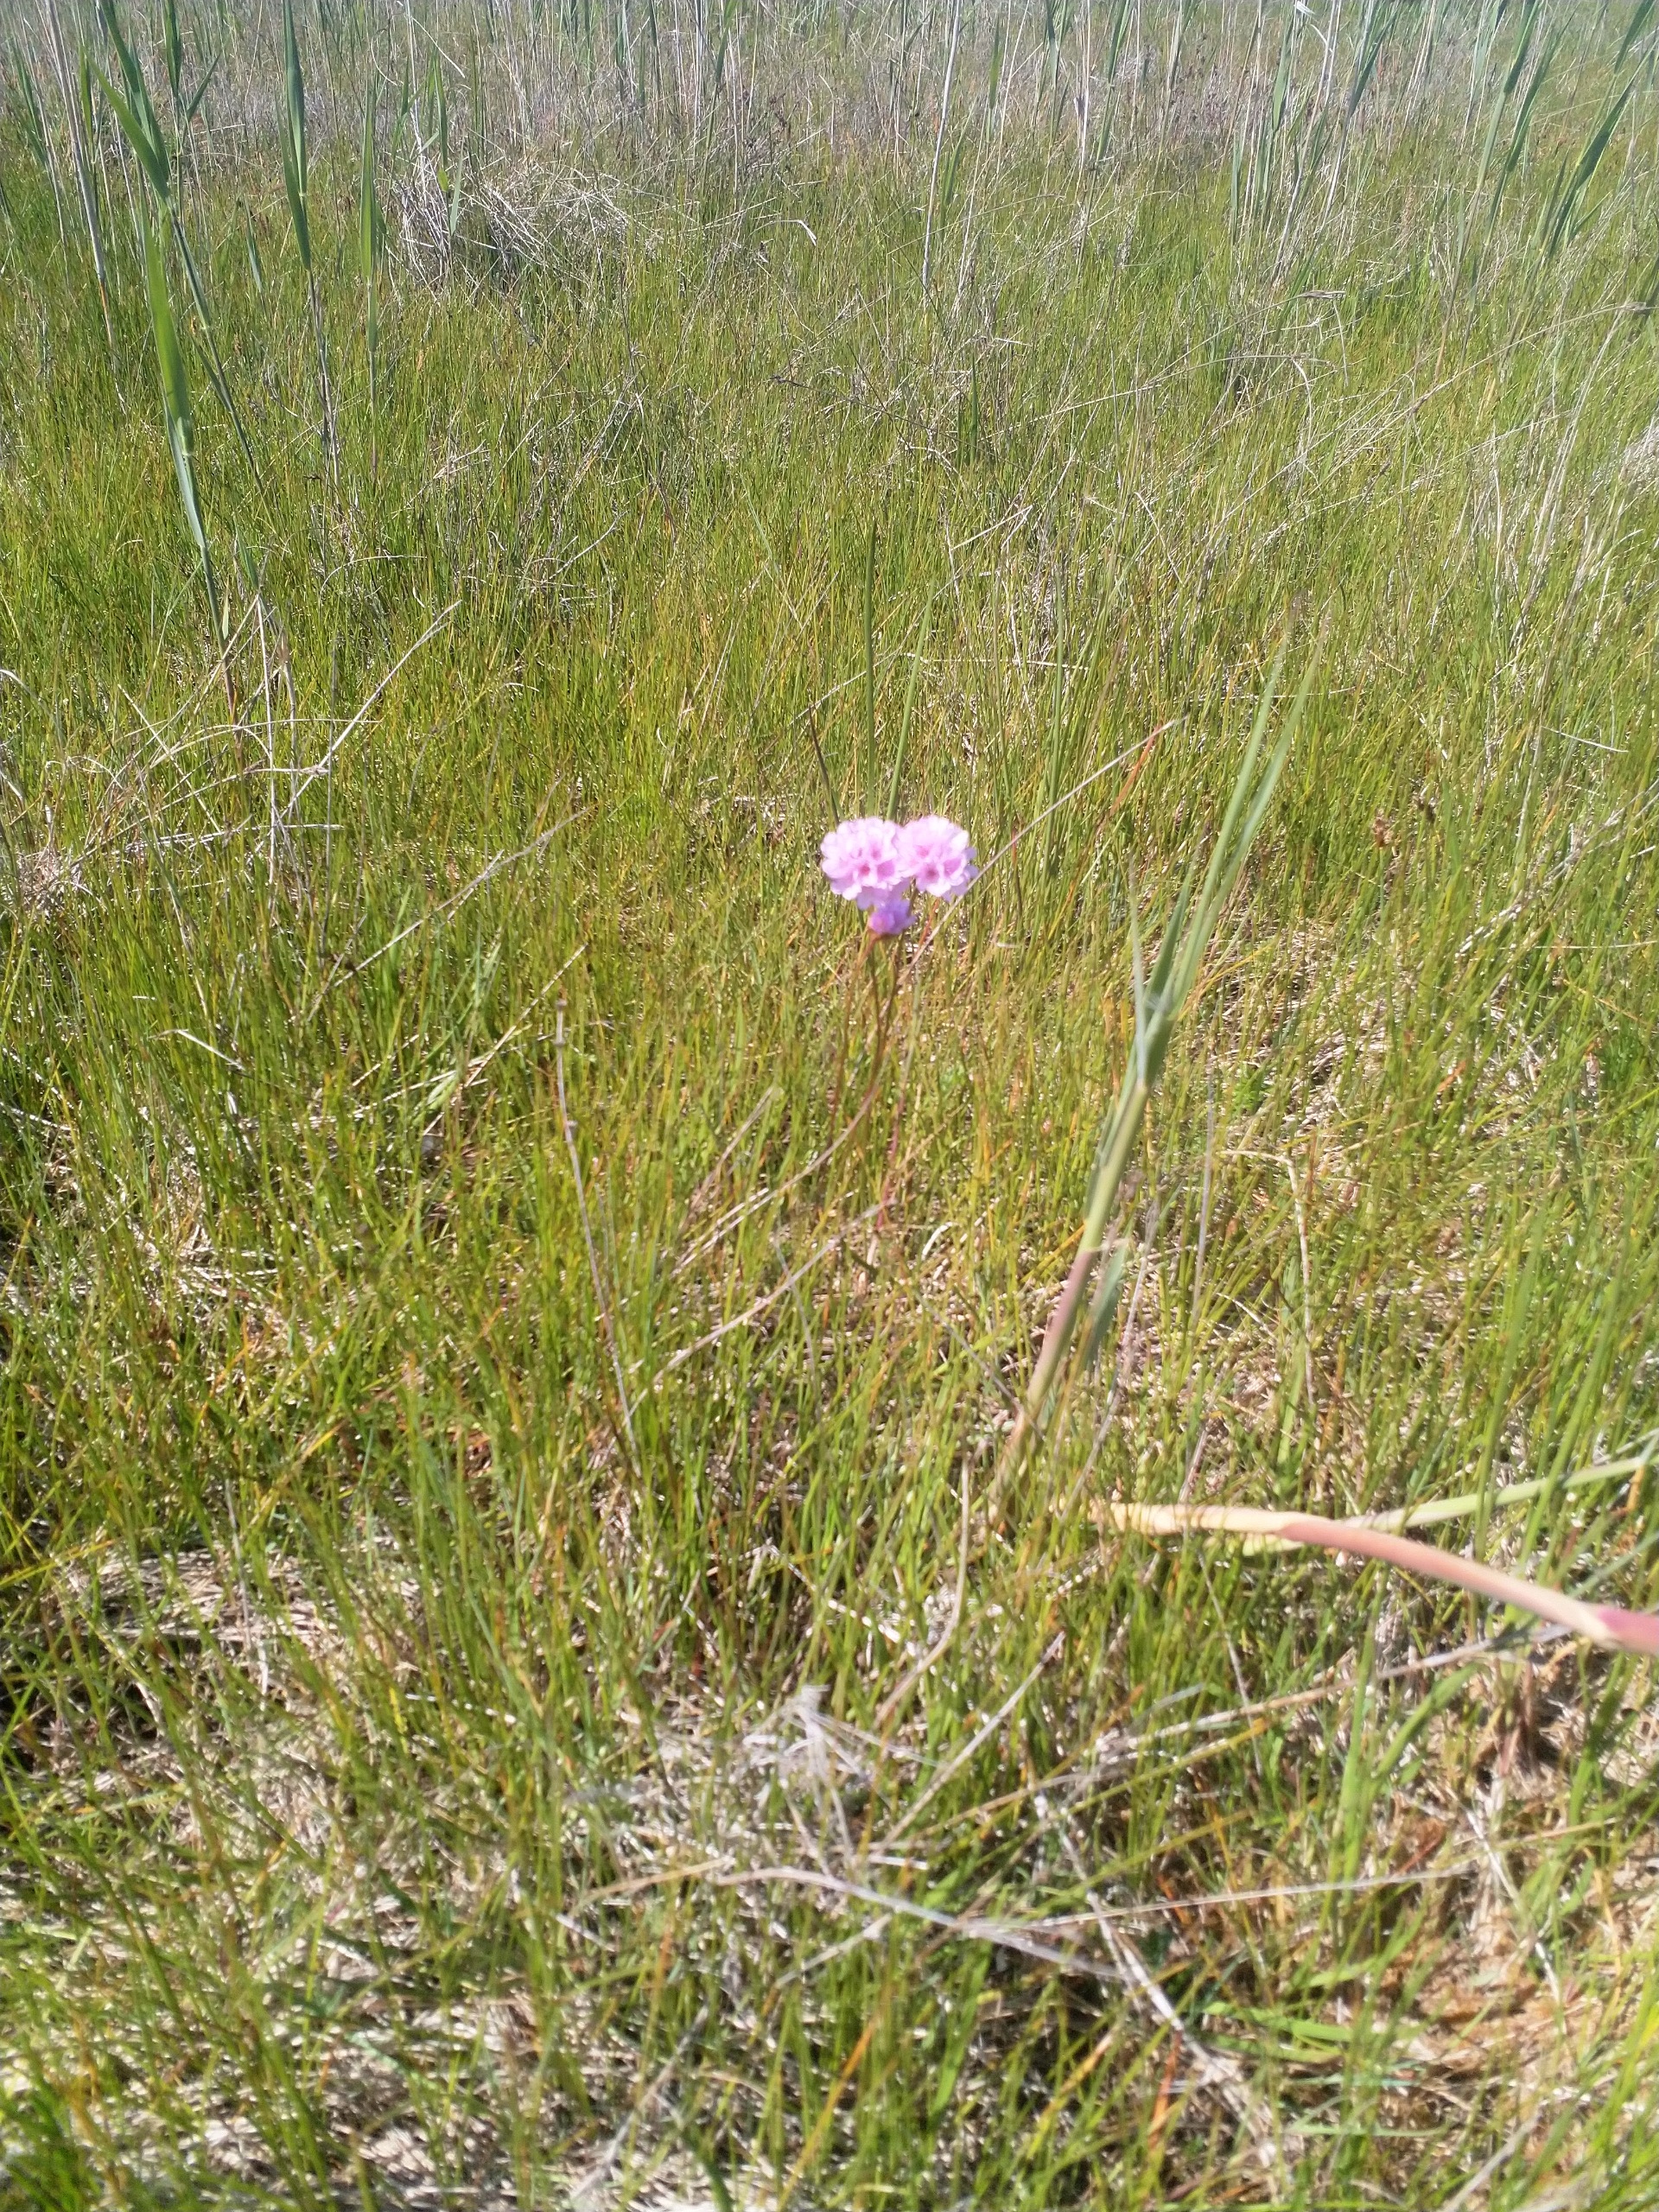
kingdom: Plantae
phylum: Tracheophyta
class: Magnoliopsida
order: Caryophyllales
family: Plumbaginaceae
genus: Armeria
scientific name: Armeria maritima
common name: Engelskgræs
